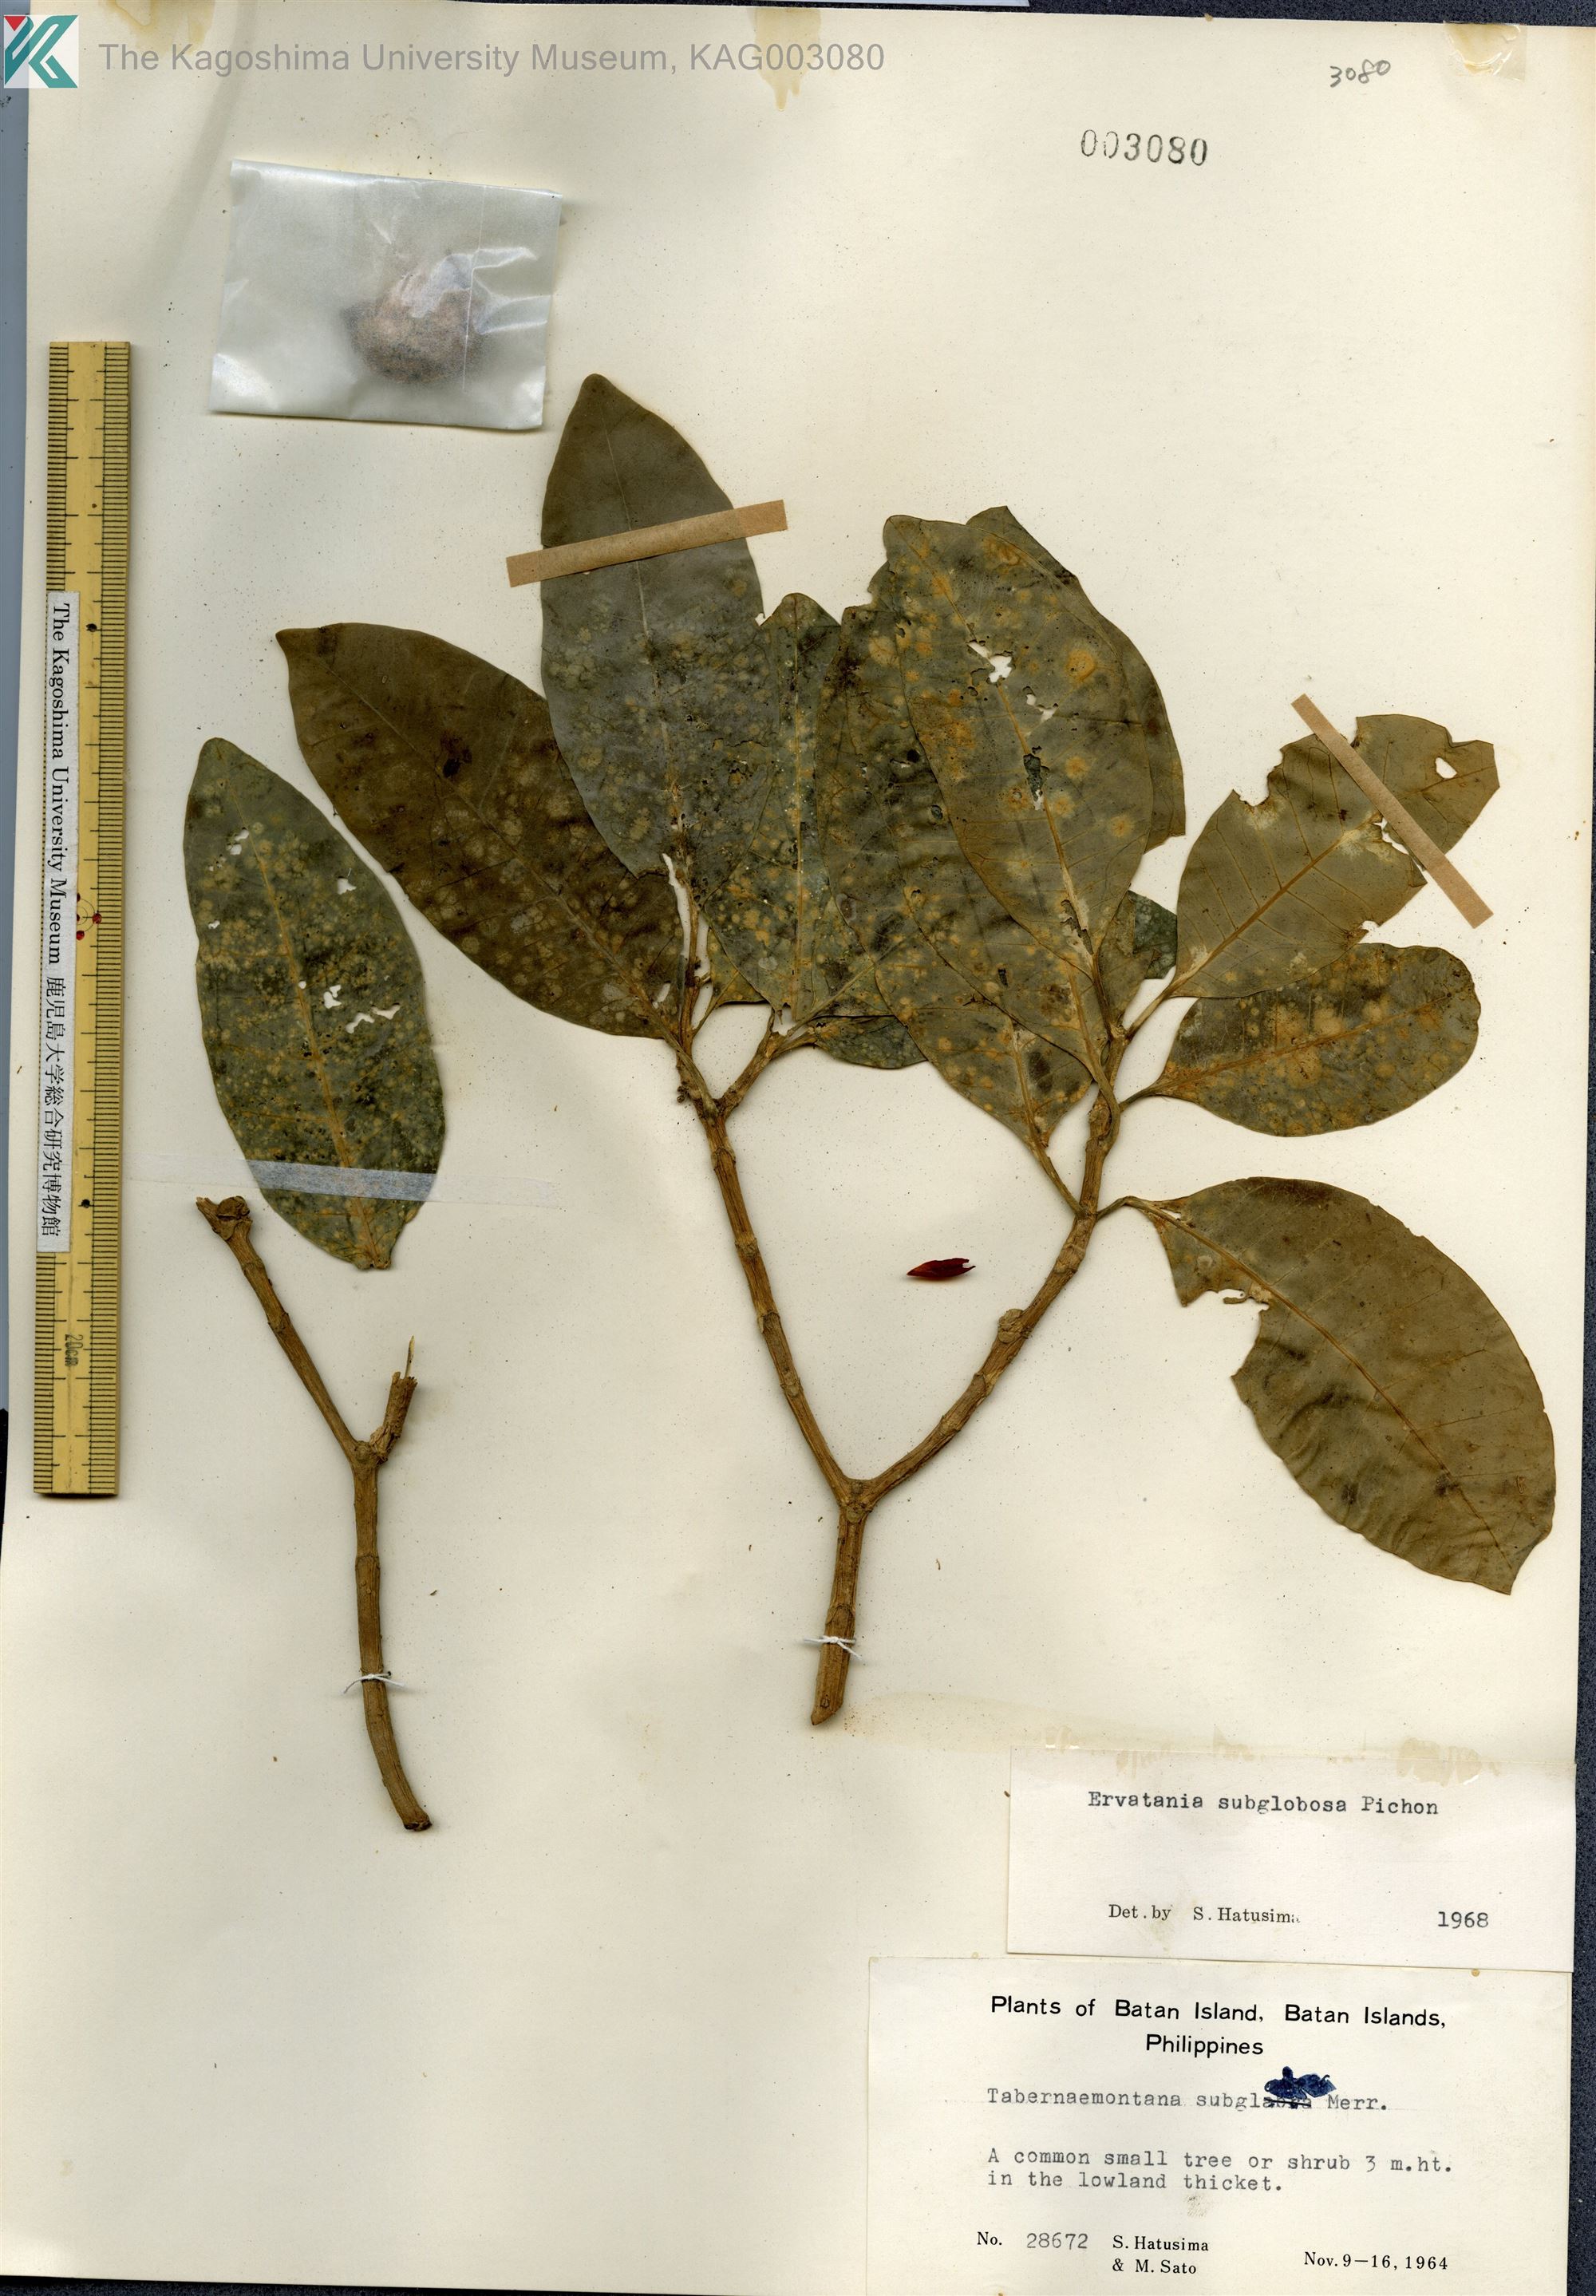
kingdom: Plantae
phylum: Tracheophyta
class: Magnoliopsida
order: Gentianales
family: Apocynaceae
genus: Tabernaemontana
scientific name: Tabernaemontana pandacaqui
